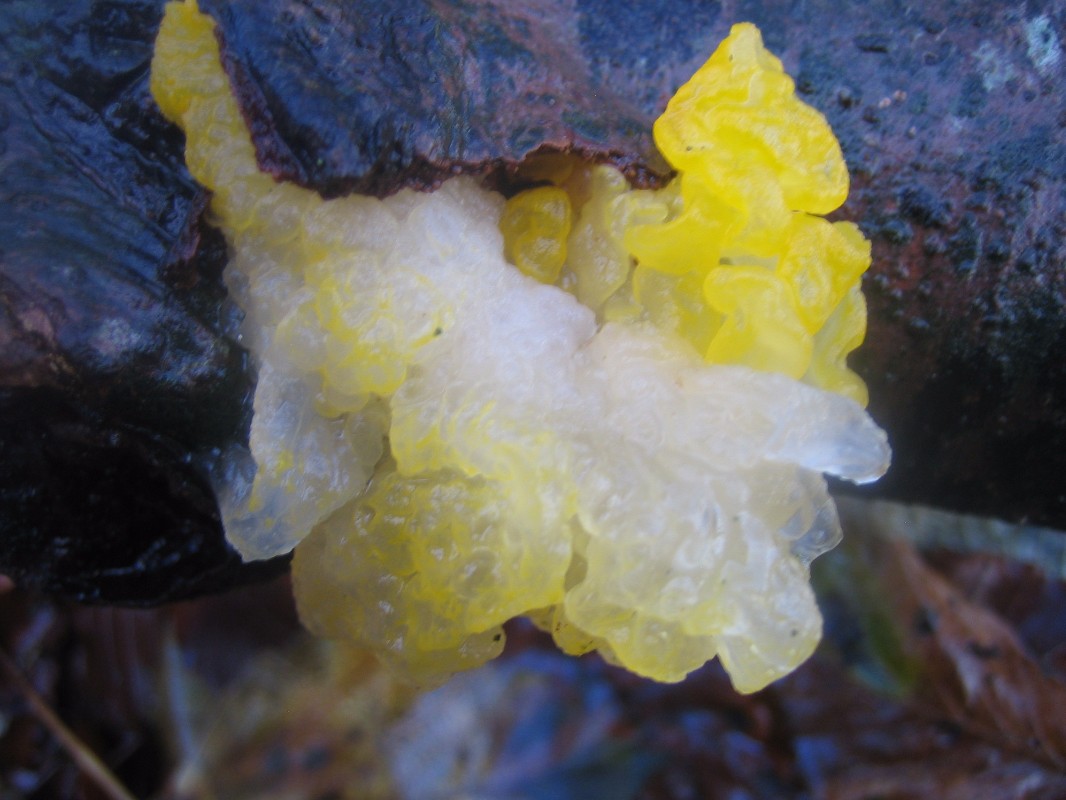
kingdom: Fungi
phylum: Basidiomycota
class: Tremellomycetes
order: Tremellales
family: Tremellaceae
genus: Tremella
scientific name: Tremella mesenterica
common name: gul bævresvamp
